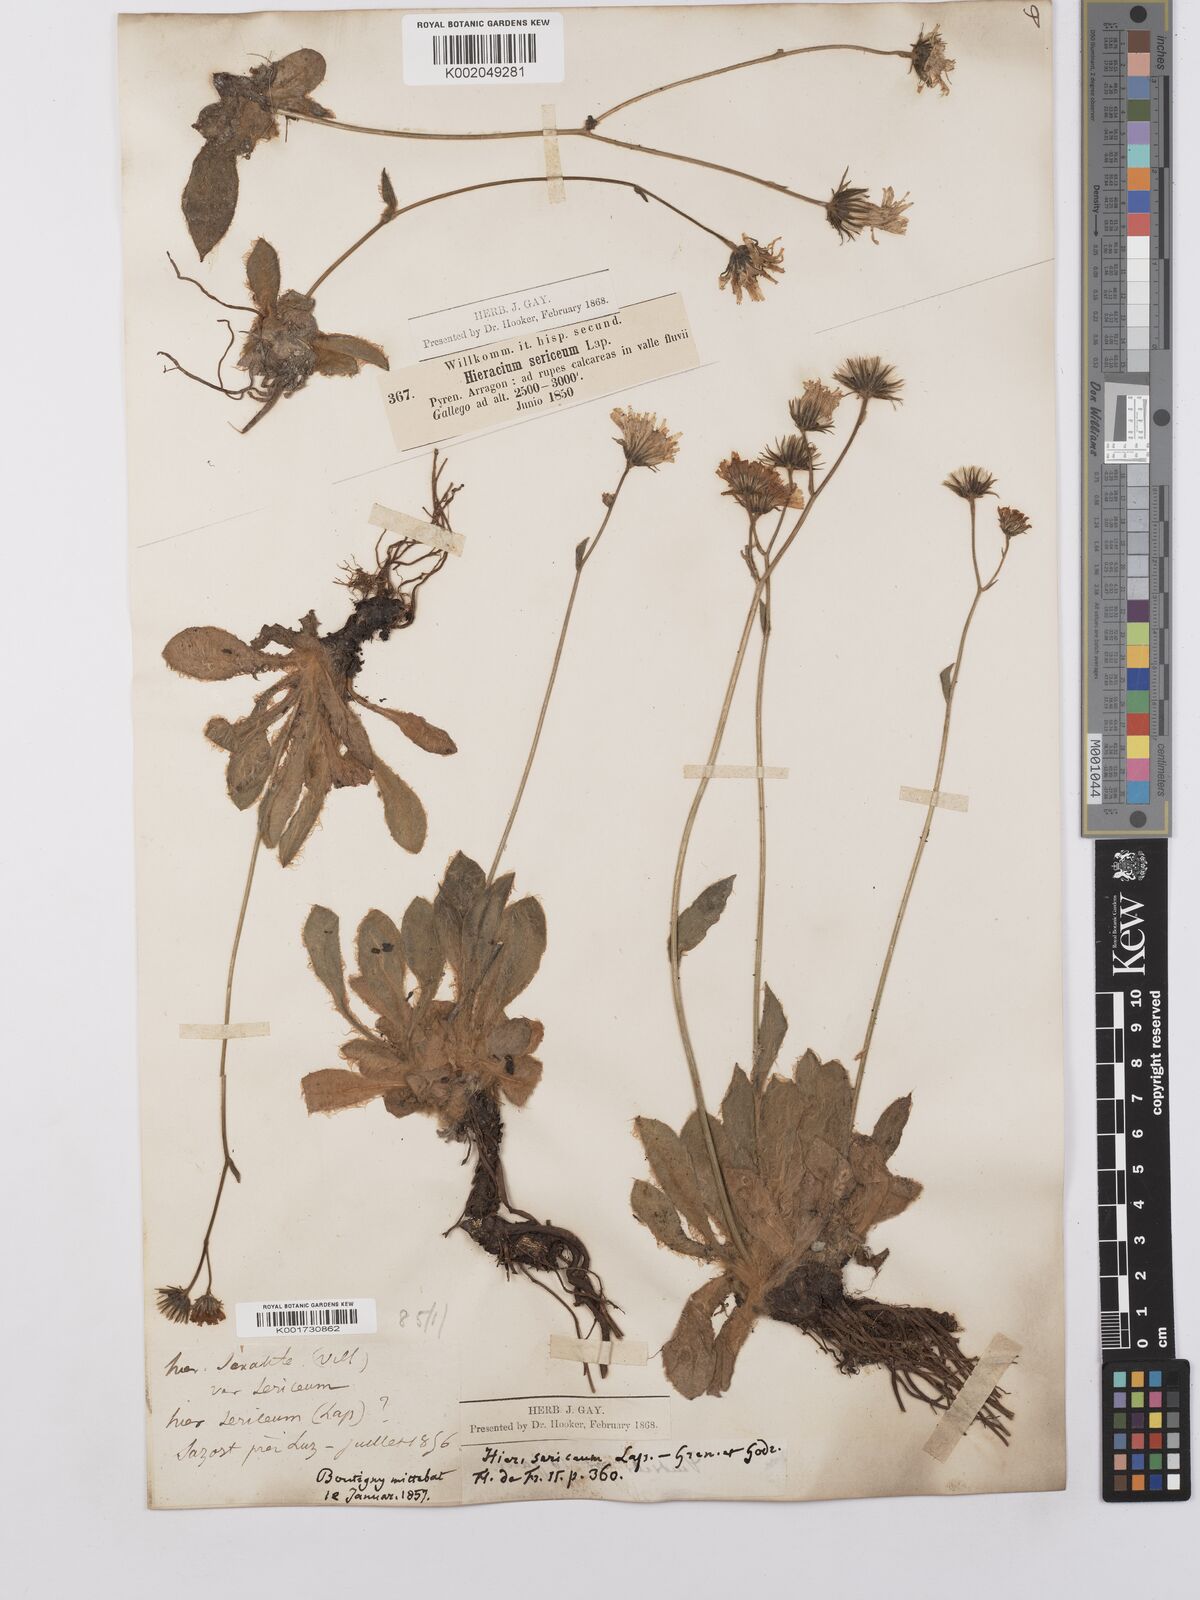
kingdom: Plantae
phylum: Tracheophyta
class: Magnoliopsida
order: Asterales
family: Asteraceae
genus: Hieracium
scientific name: Hieracium
